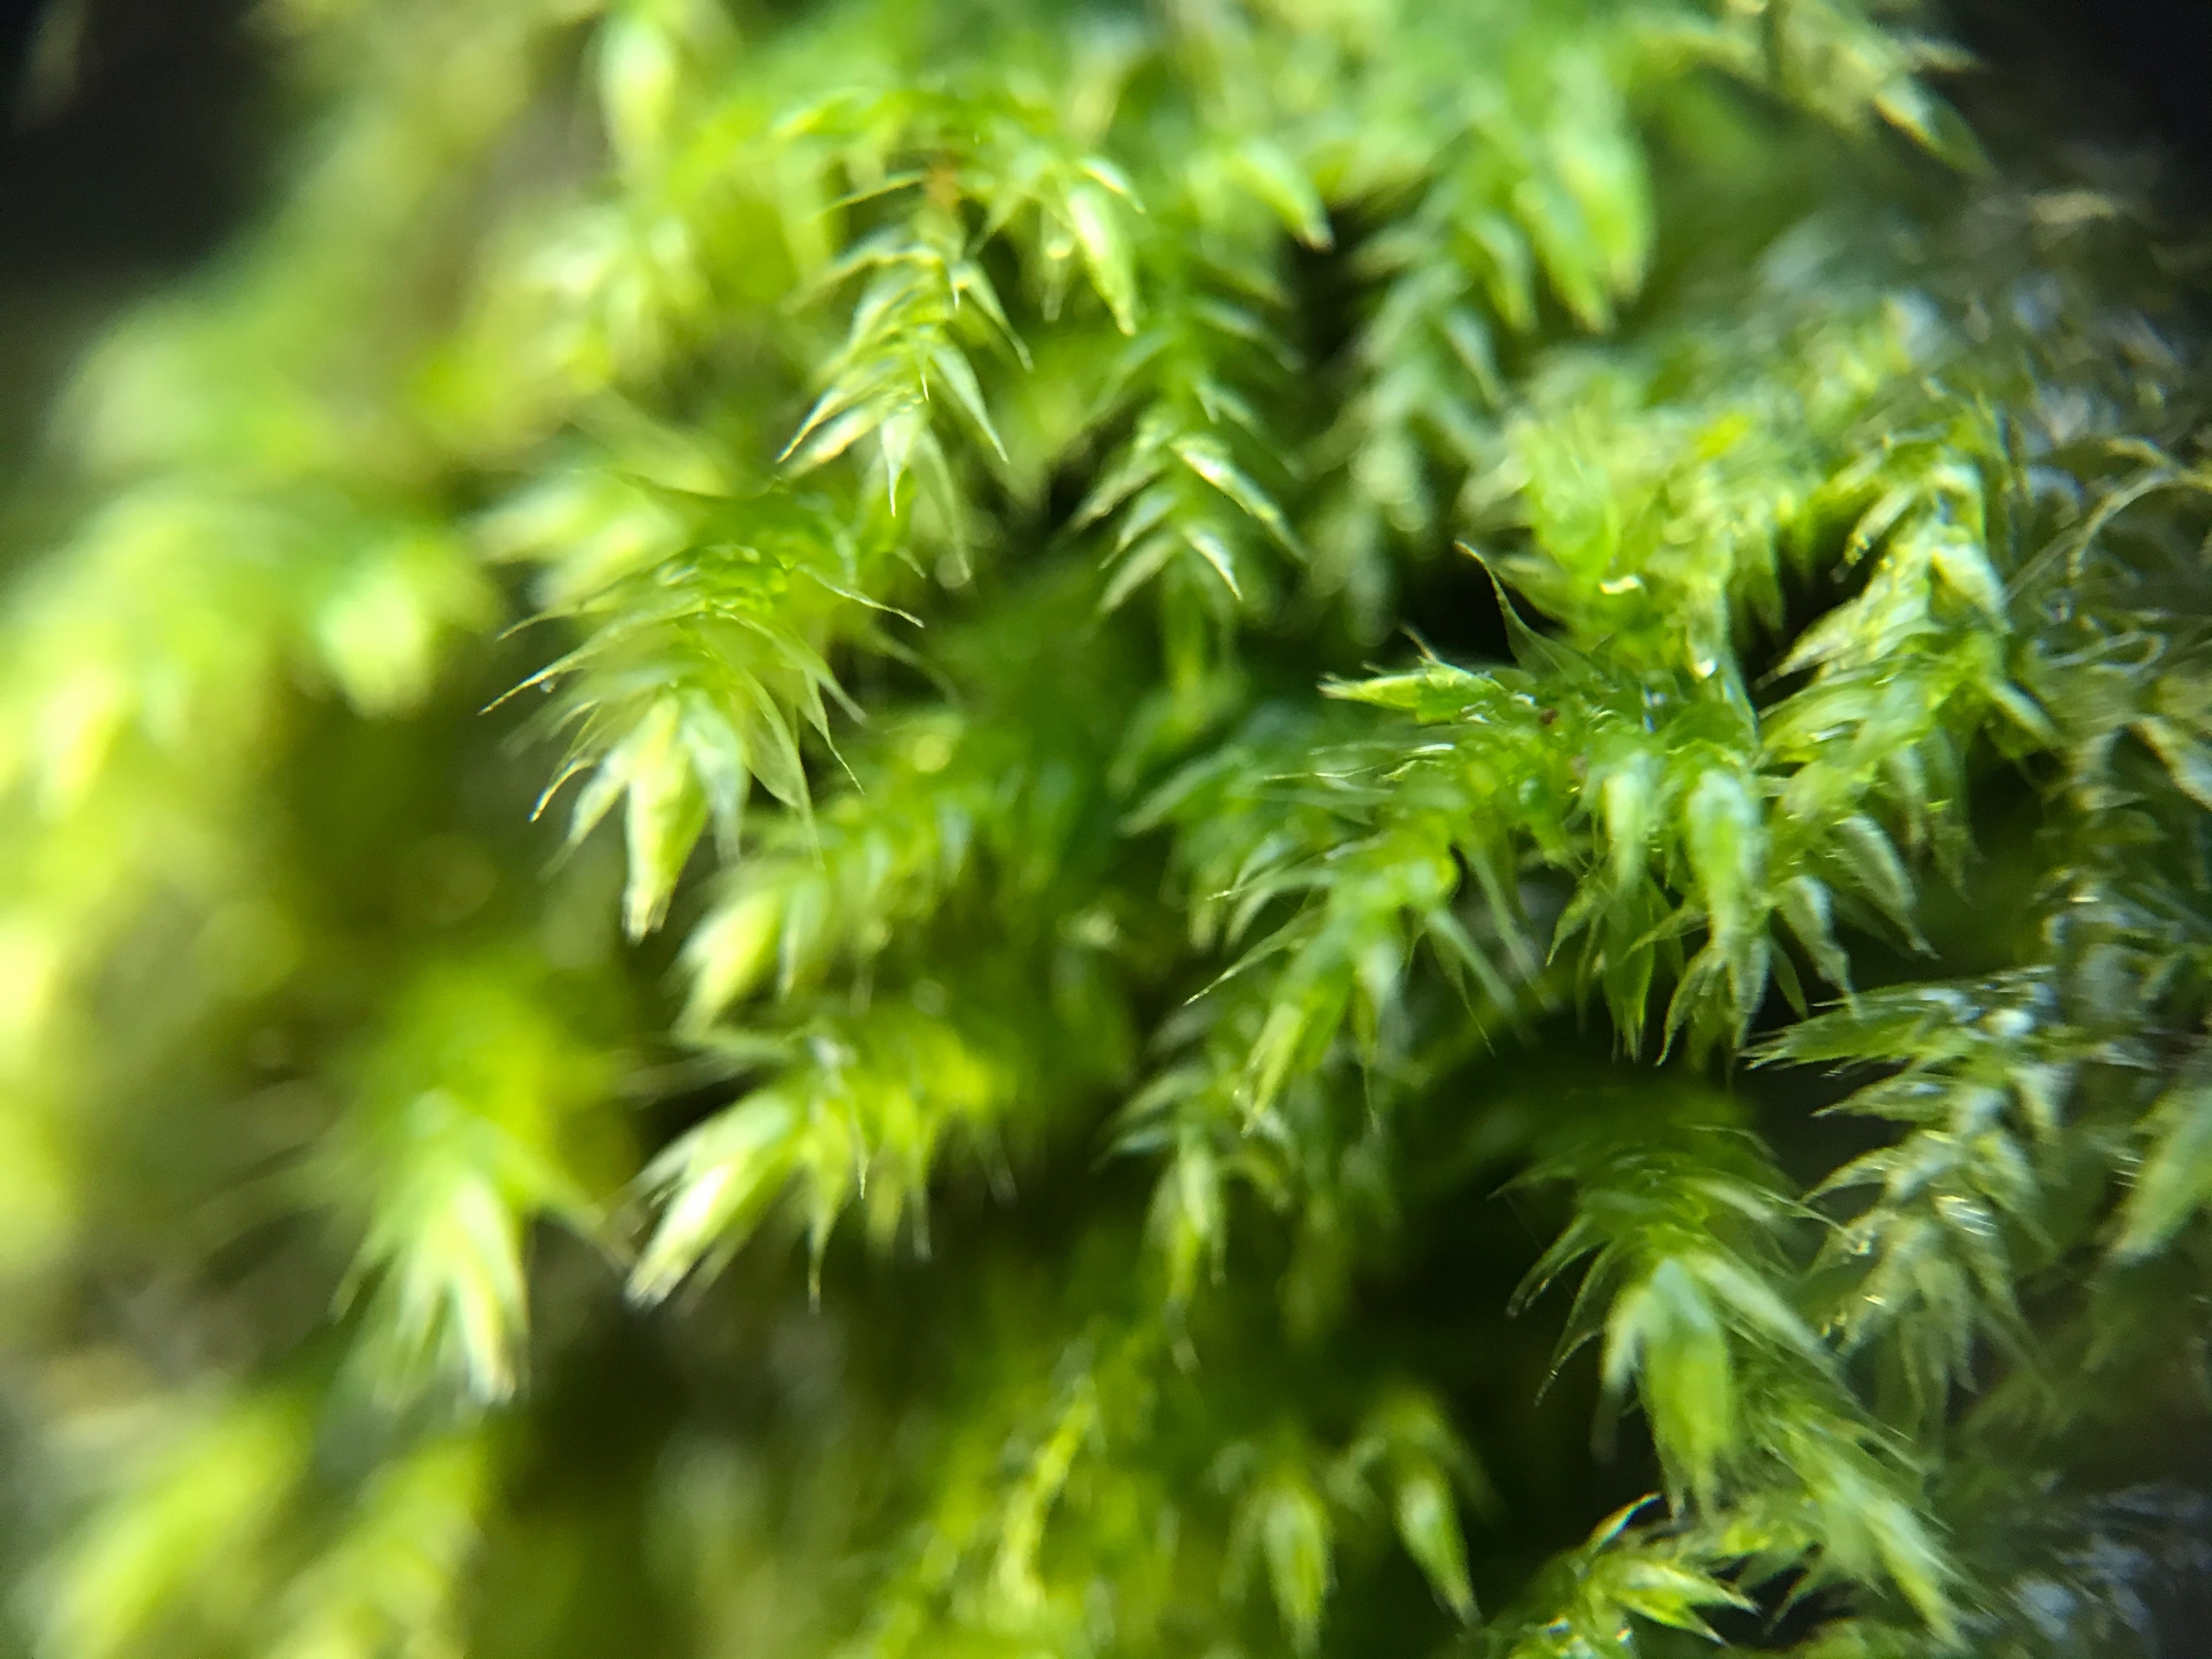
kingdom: Plantae
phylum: Bryophyta
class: Bryopsida
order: Hypnales
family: Lembophyllaceae
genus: Pseudisothecium
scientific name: Pseudisothecium myosuroides
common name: Slank stammemos
